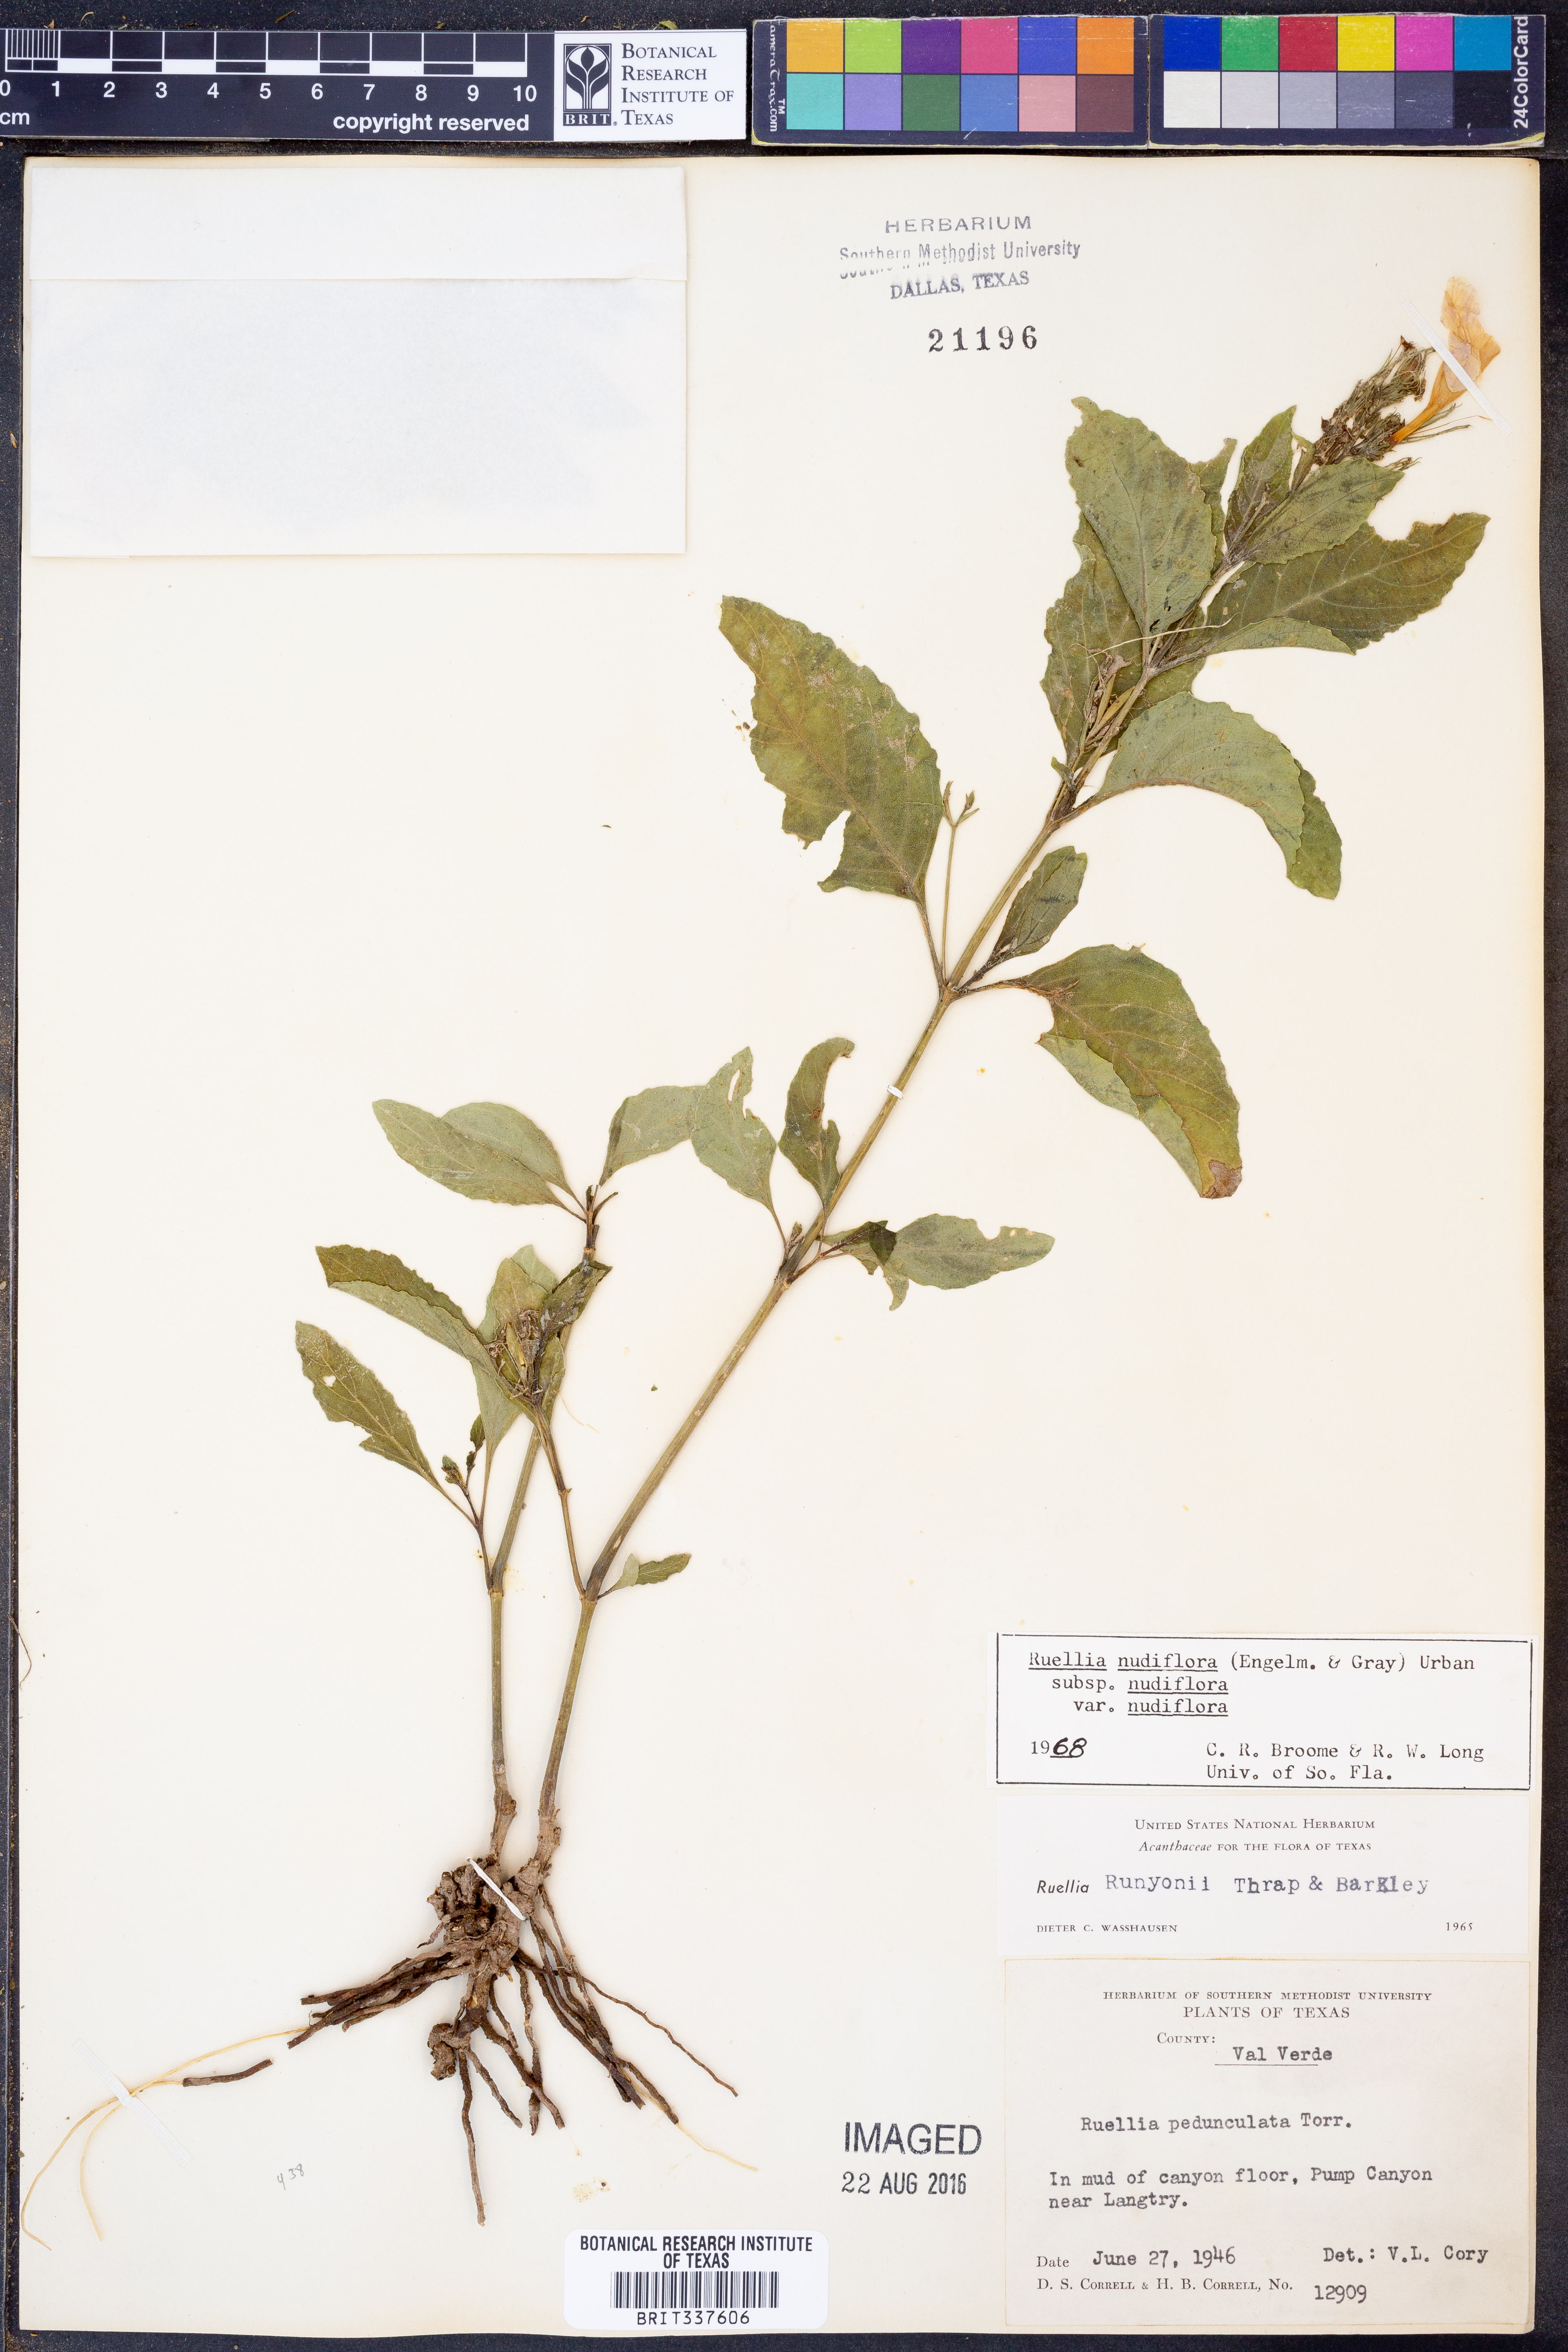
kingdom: Plantae
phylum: Tracheophyta
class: Magnoliopsida
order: Lamiales
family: Acanthaceae
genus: Ruellia
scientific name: Ruellia ciliatiflora
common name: Hairyflower wild petunia
